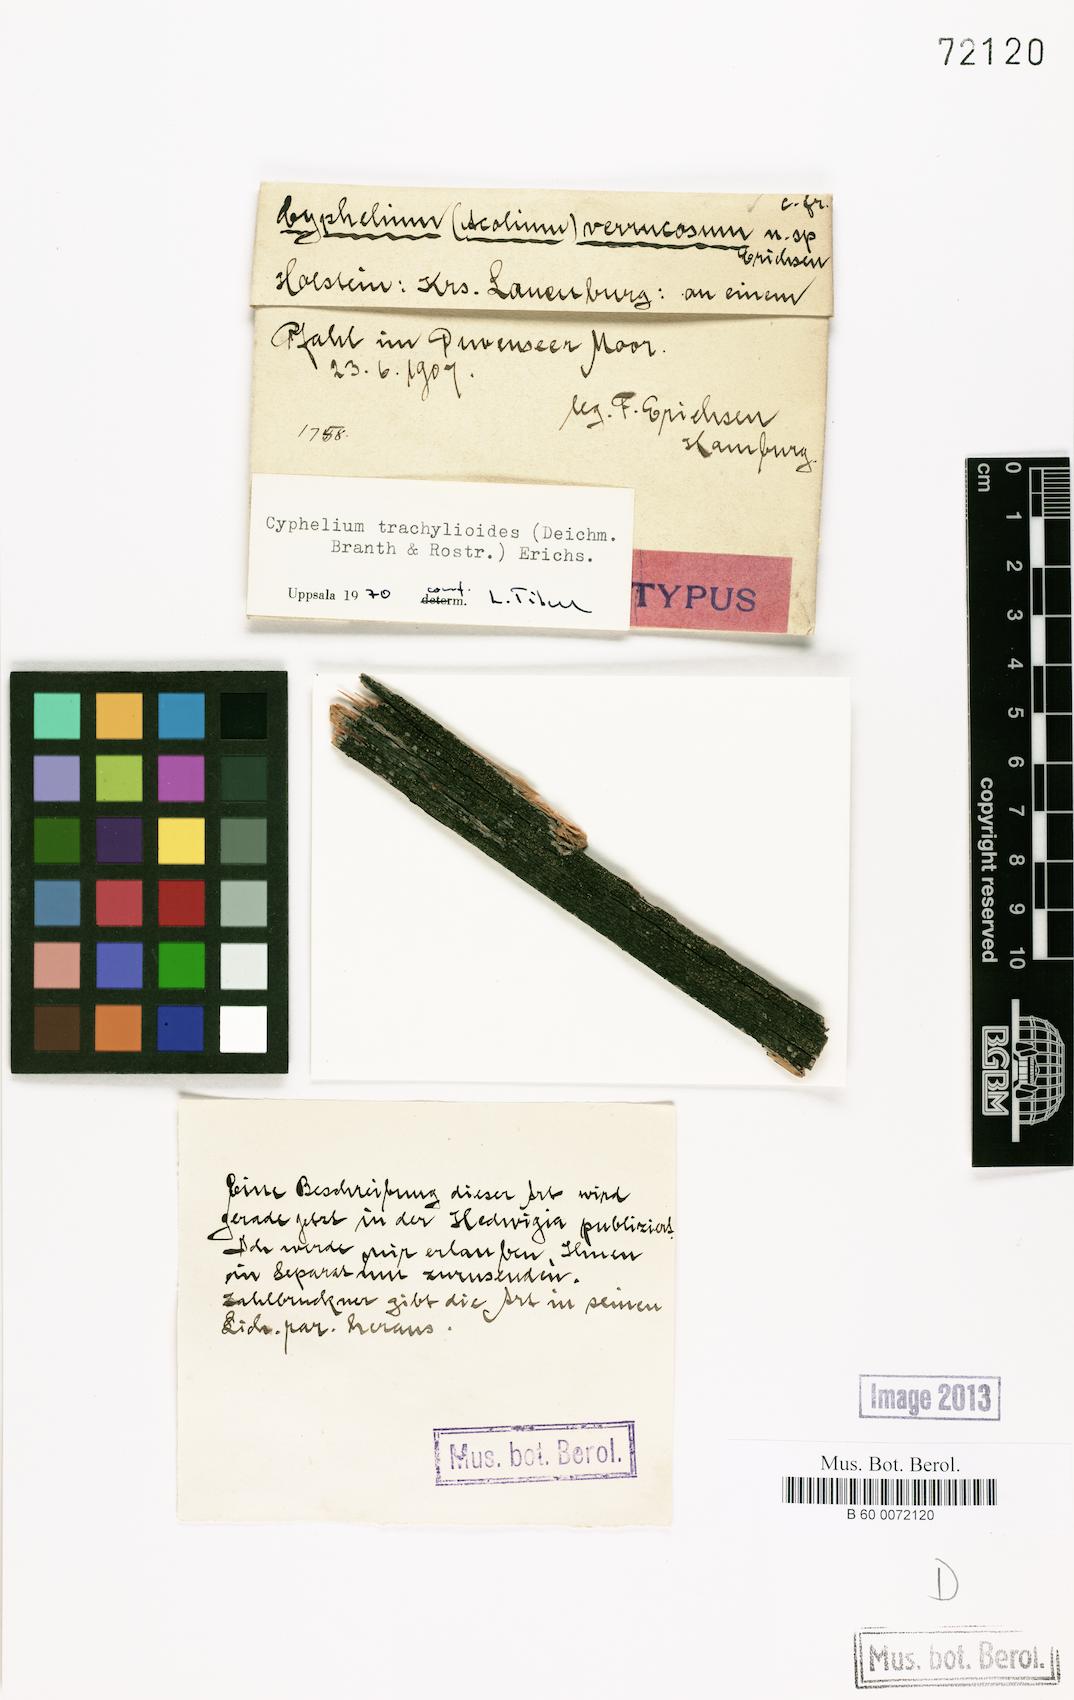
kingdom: Fungi
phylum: Ascomycota
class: Lecanoromycetes
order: Caliciales
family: Caliciaceae
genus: Calicium
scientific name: Calicium trachylioides
